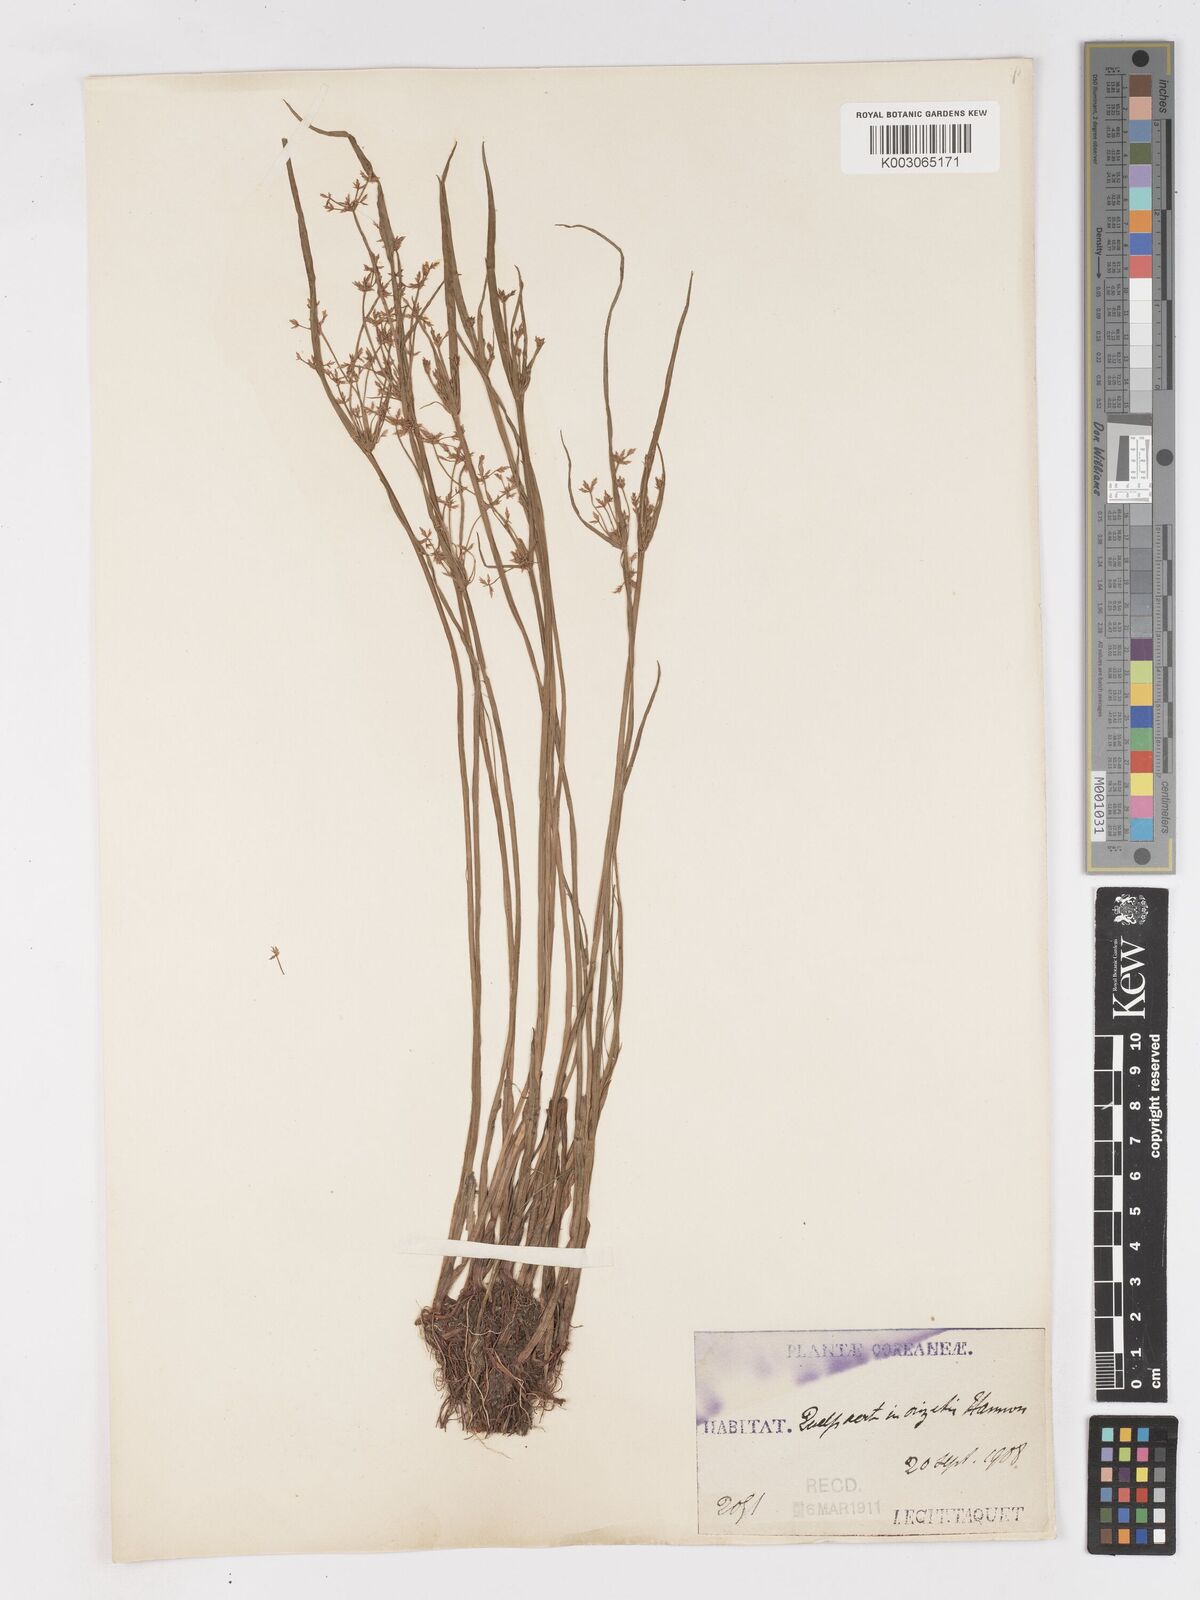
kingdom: Plantae
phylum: Tracheophyta
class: Liliopsida
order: Poales
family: Cyperaceae
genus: Cyperus
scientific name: Cyperus haspan
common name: Haspan flatsedge
